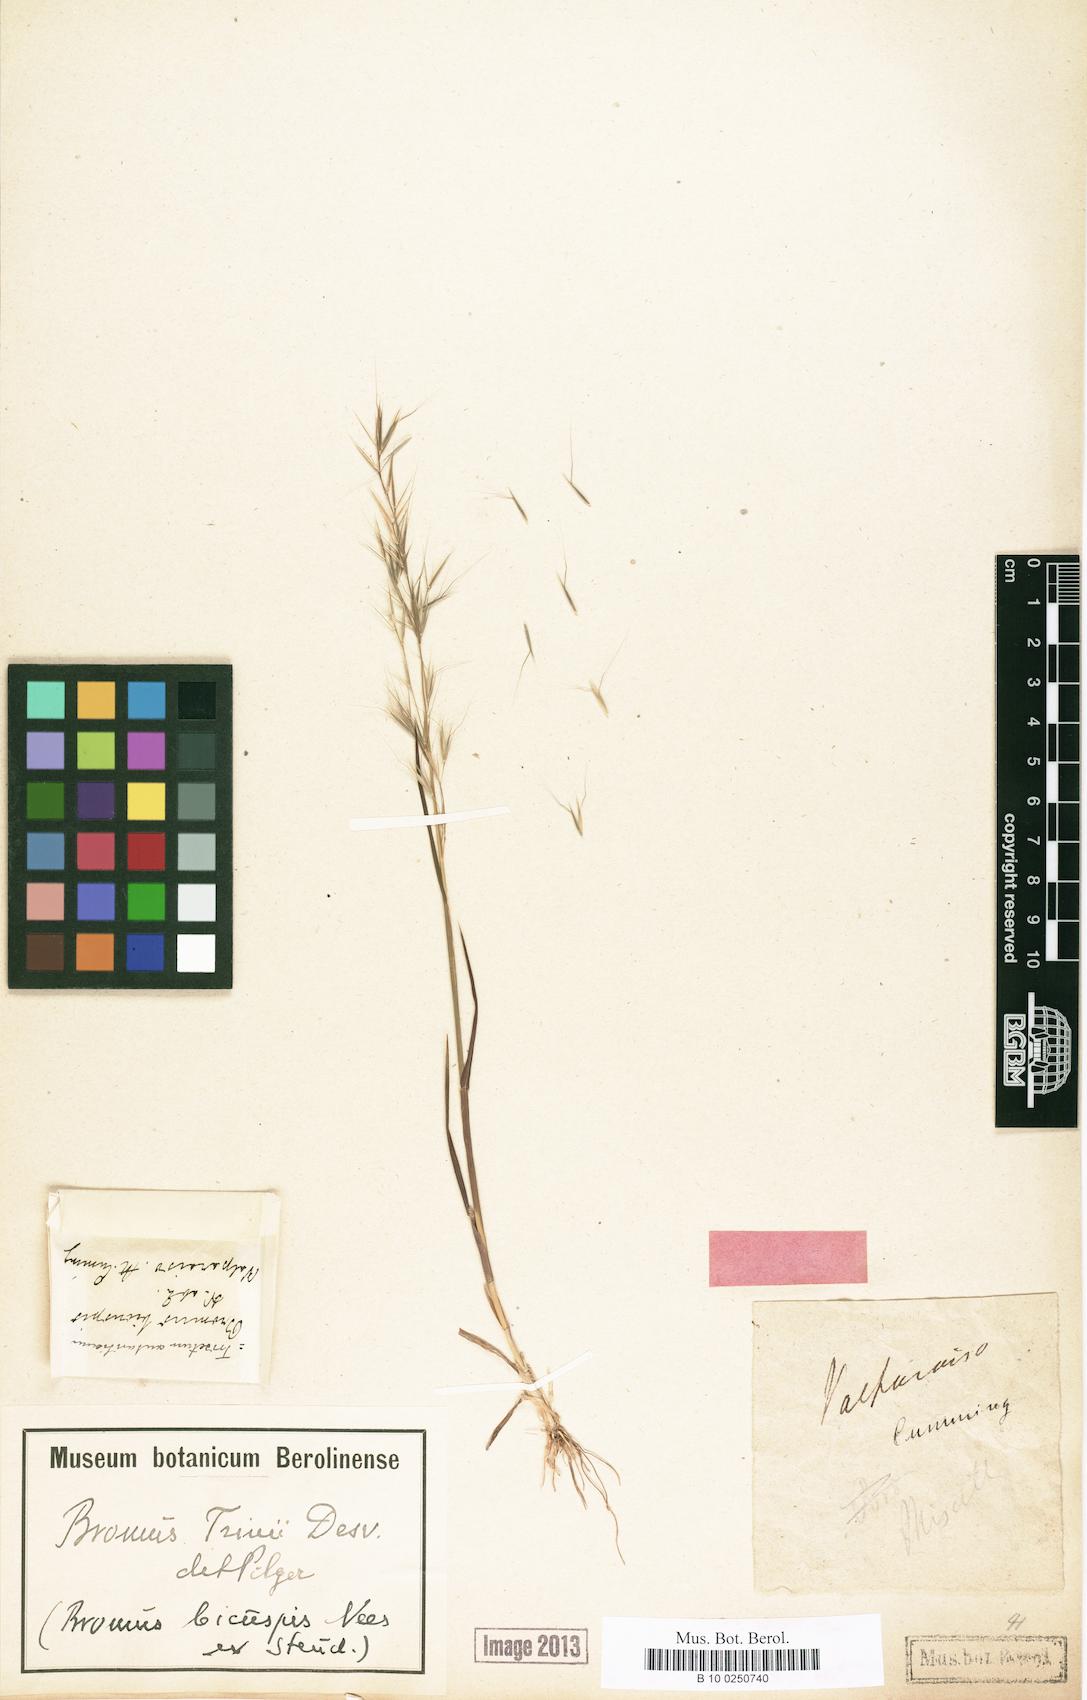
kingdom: Plantae
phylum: Tracheophyta
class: Liliopsida
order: Poales
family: Poaceae
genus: Bromus
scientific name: Bromus berteroanus
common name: Chilean chess
